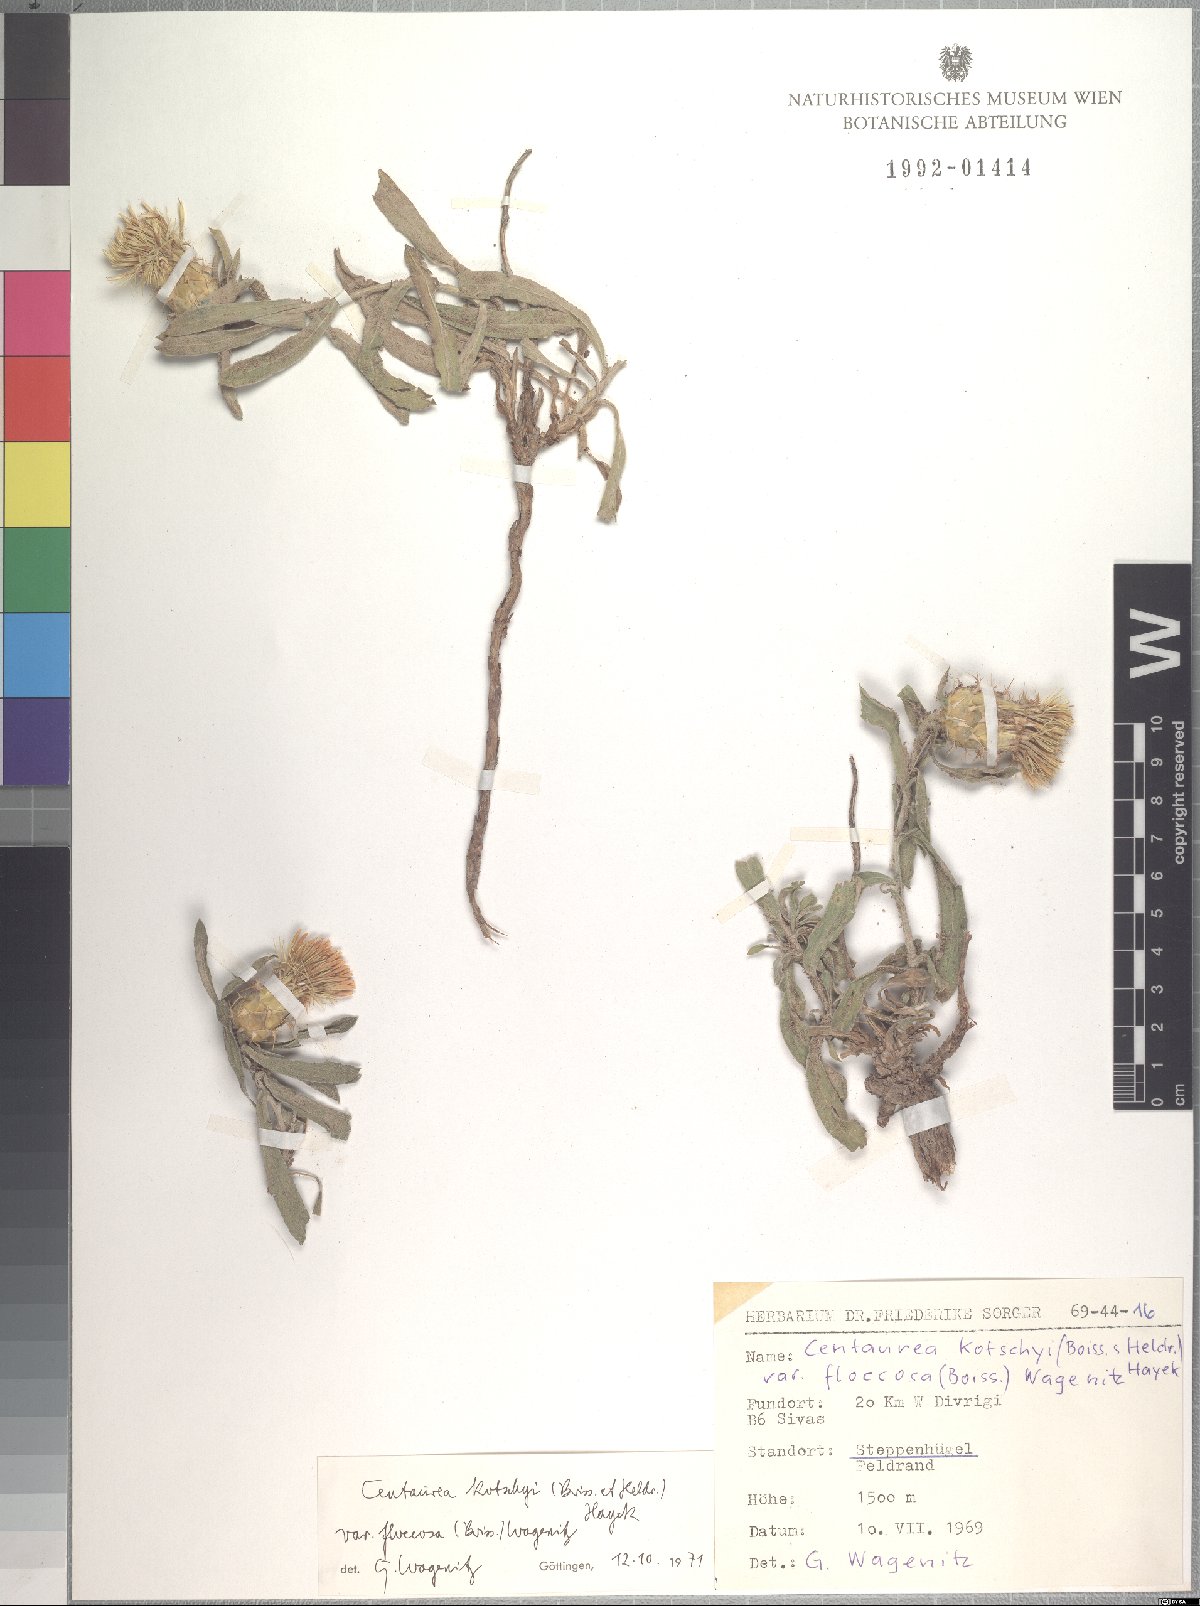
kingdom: Plantae
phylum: Tracheophyta
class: Magnoliopsida
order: Asterales
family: Asteraceae
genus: Centaurea
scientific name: Centaurea kotschyi
